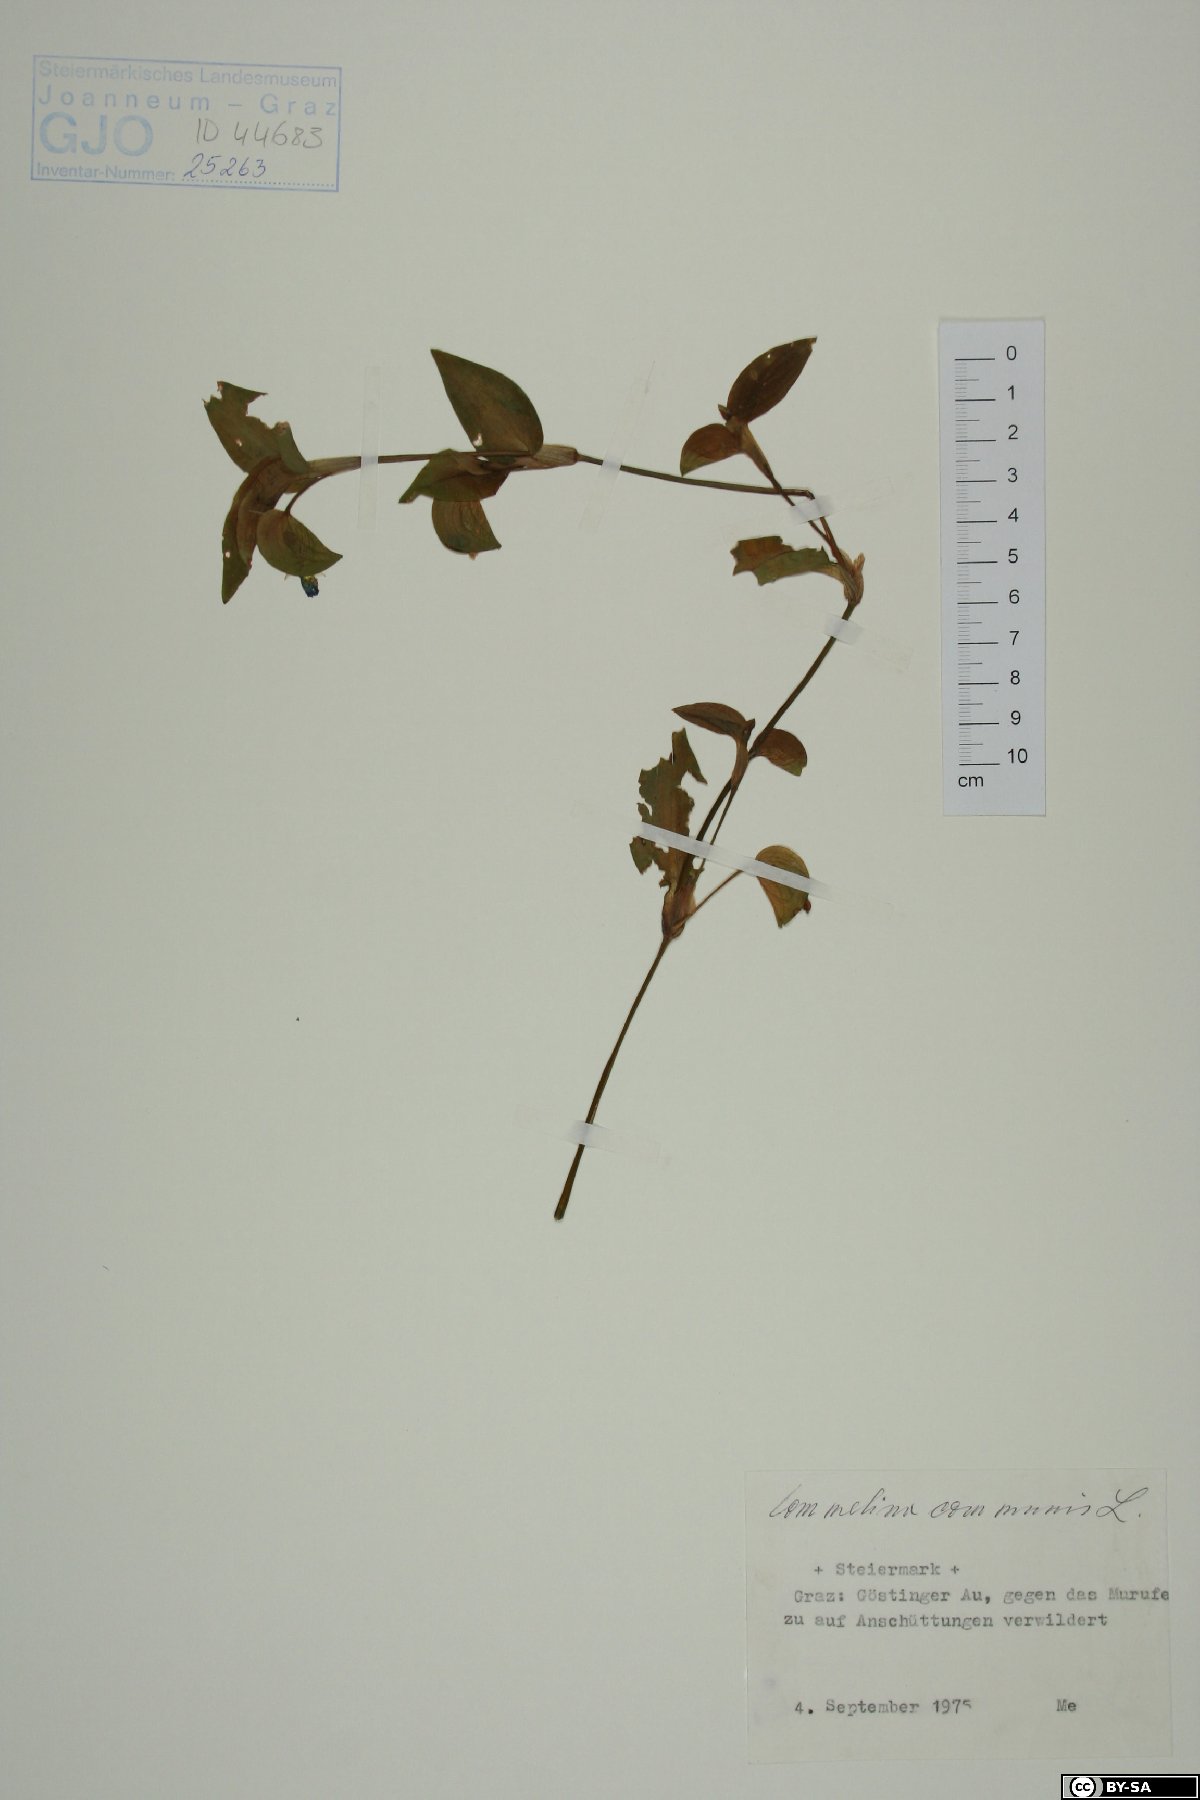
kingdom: Plantae
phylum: Tracheophyta
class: Liliopsida
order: Commelinales
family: Commelinaceae
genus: Commelina
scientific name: Commelina communis
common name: Asiatic dayflower
